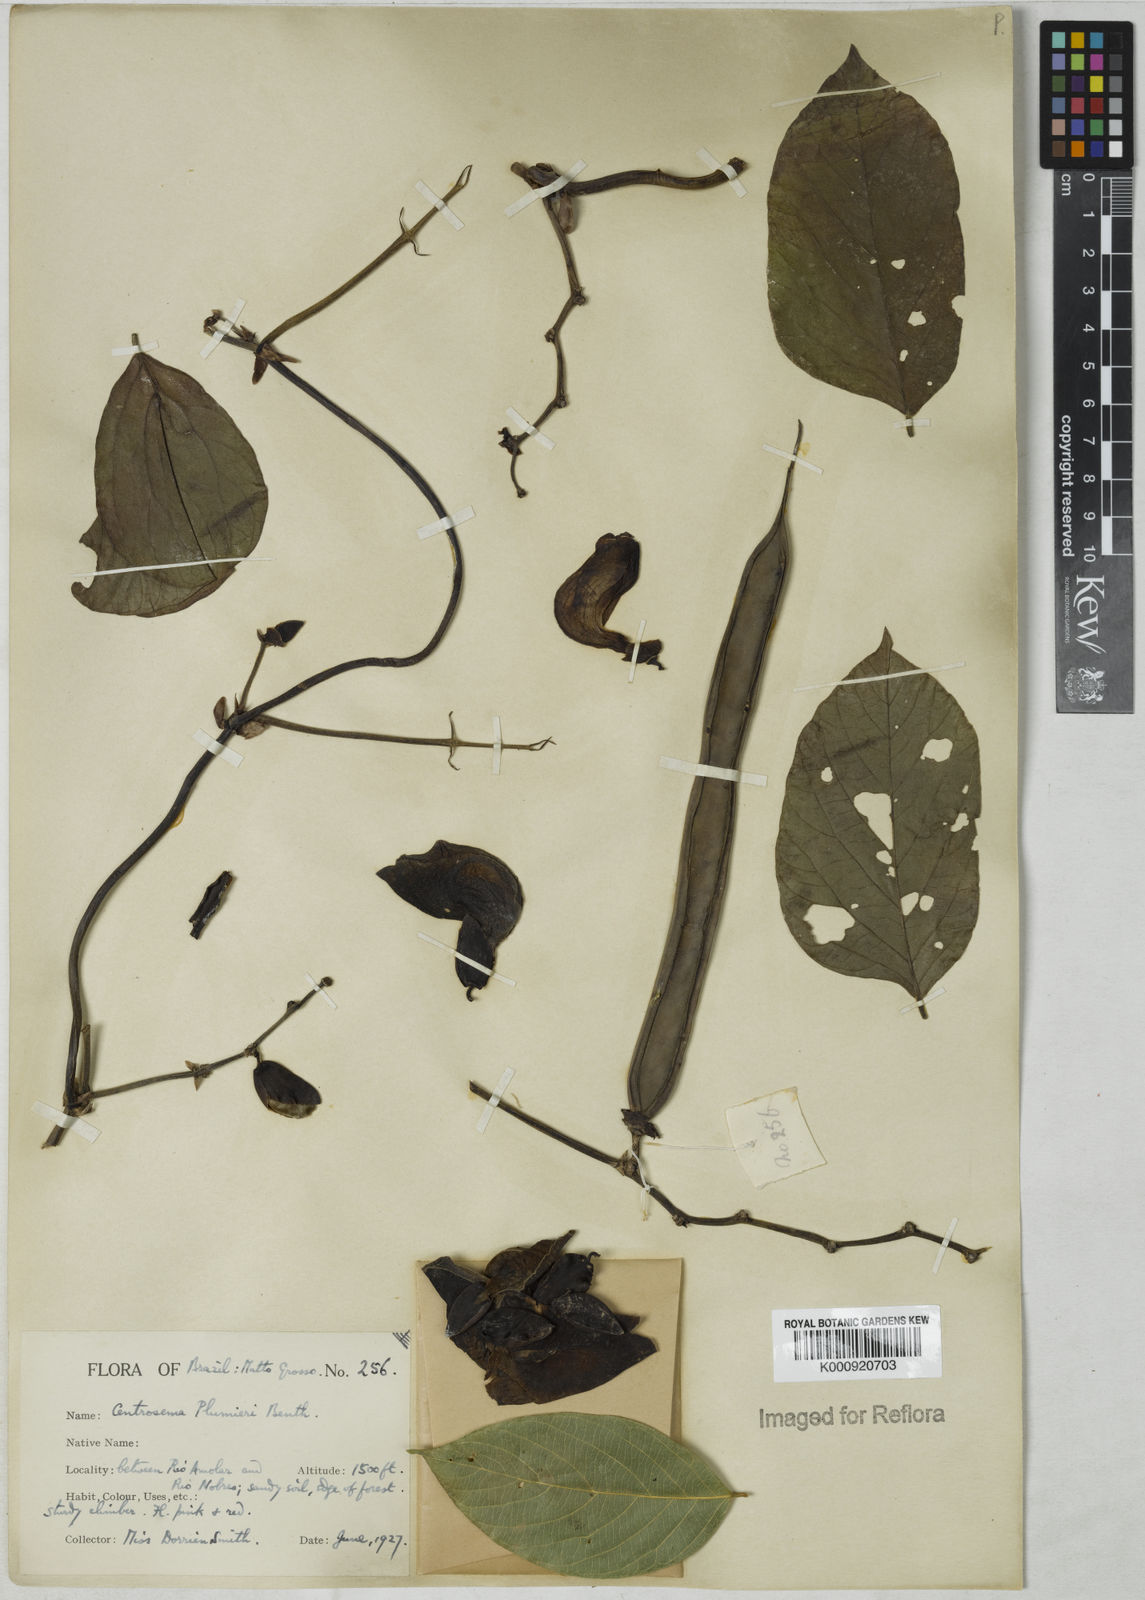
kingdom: Plantae
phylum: Tracheophyta
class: Magnoliopsida
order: Fabales
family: Fabaceae
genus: Centrosema
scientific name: Centrosema plumieri
